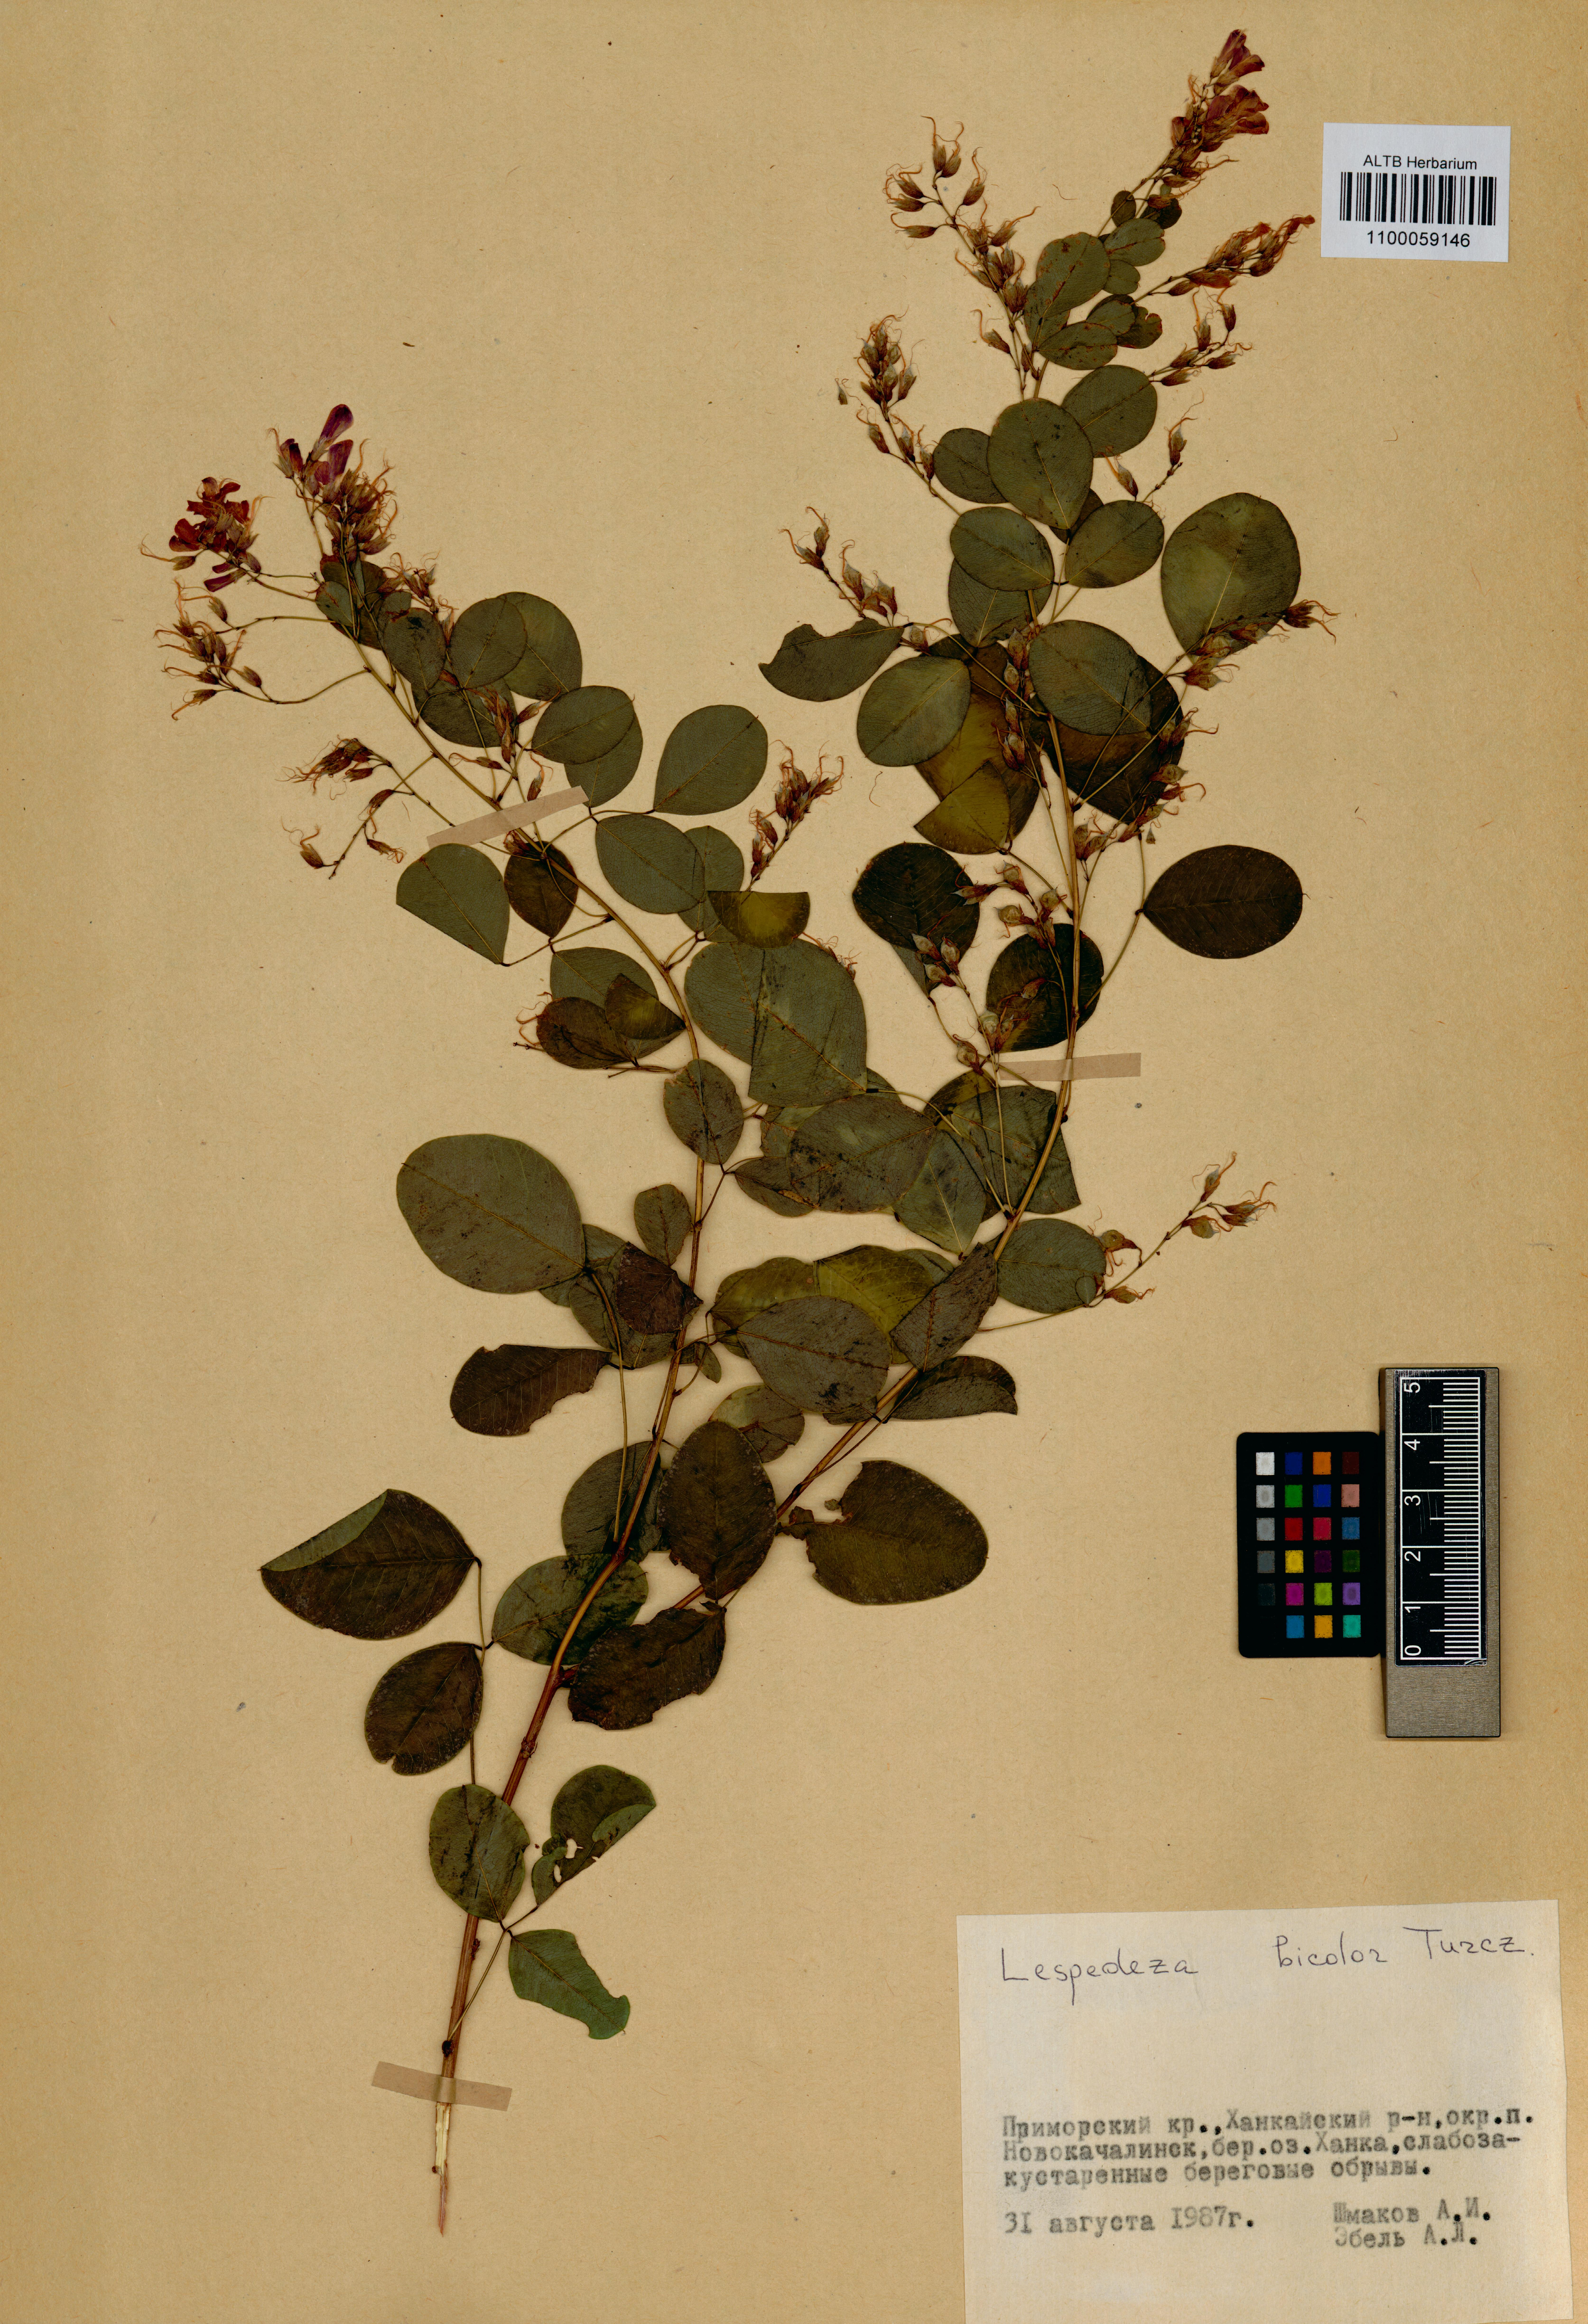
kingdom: Plantae
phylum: Tracheophyta
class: Magnoliopsida
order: Fabales
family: Fabaceae
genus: Lespedeza
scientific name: Lespedeza bicolor
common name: Shrub lespedeza
